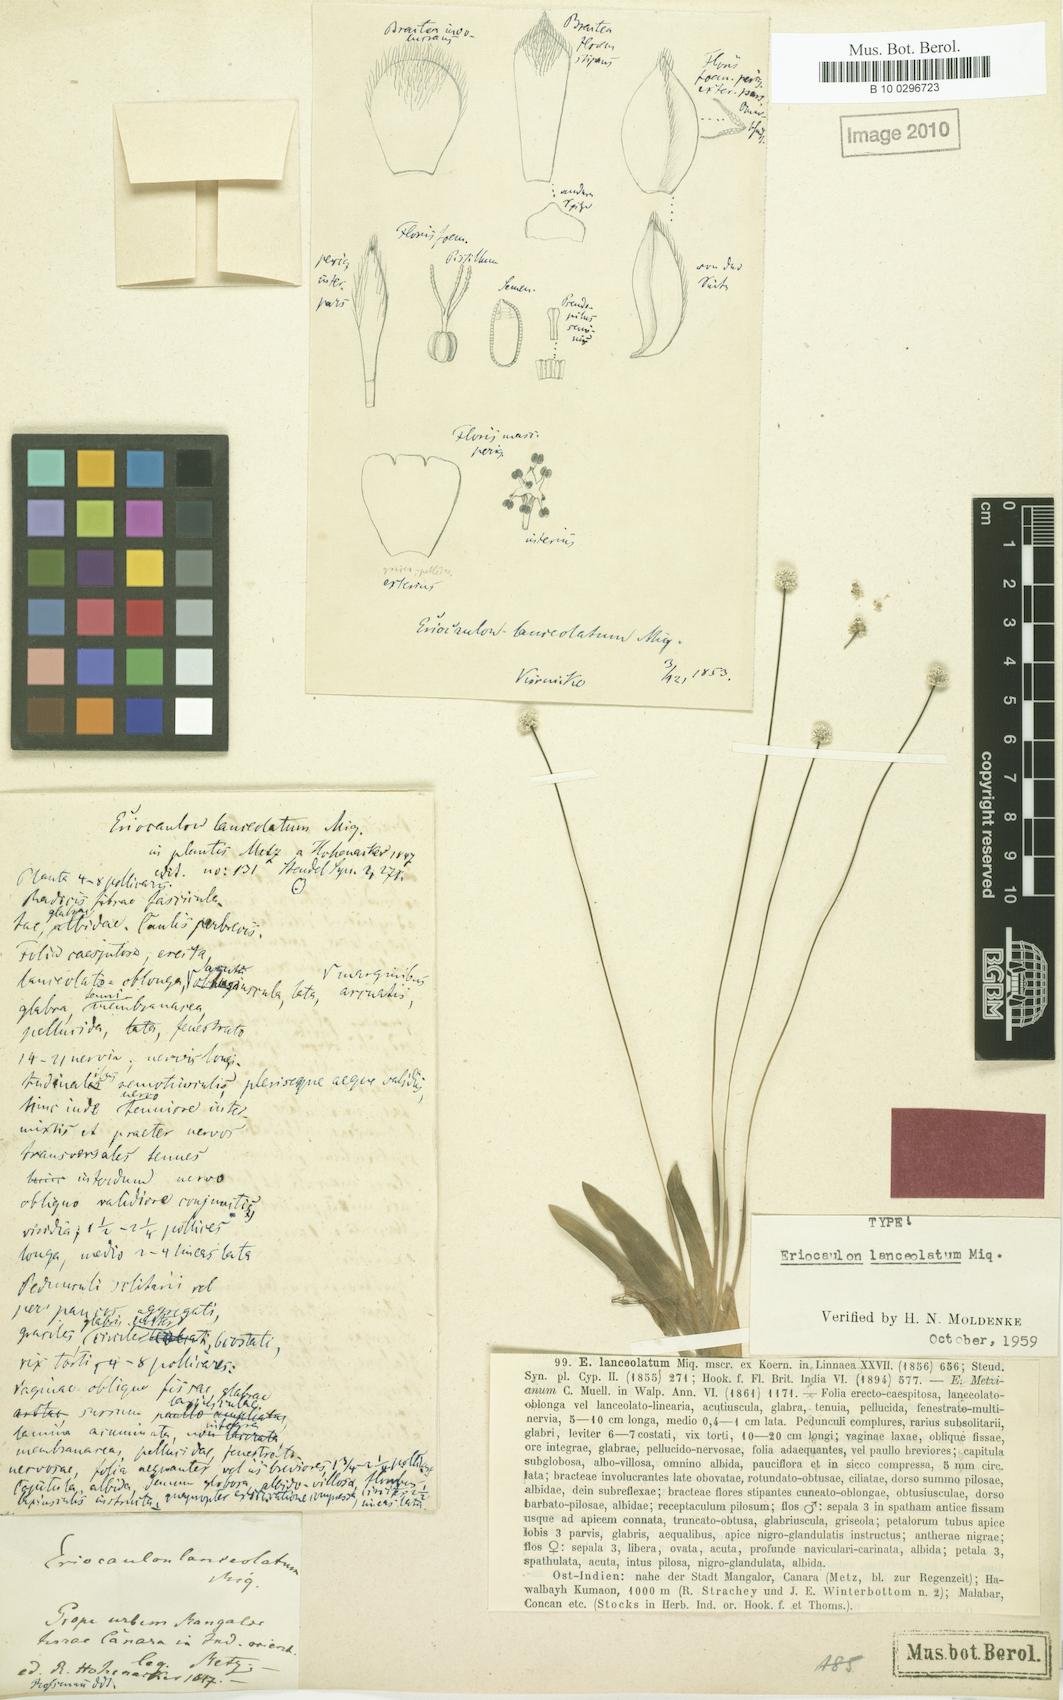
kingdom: Plantae
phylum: Tracheophyta
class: Liliopsida
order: Poales
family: Eriocaulaceae
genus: Eriocaulon
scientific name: Eriocaulon lanceolatum
